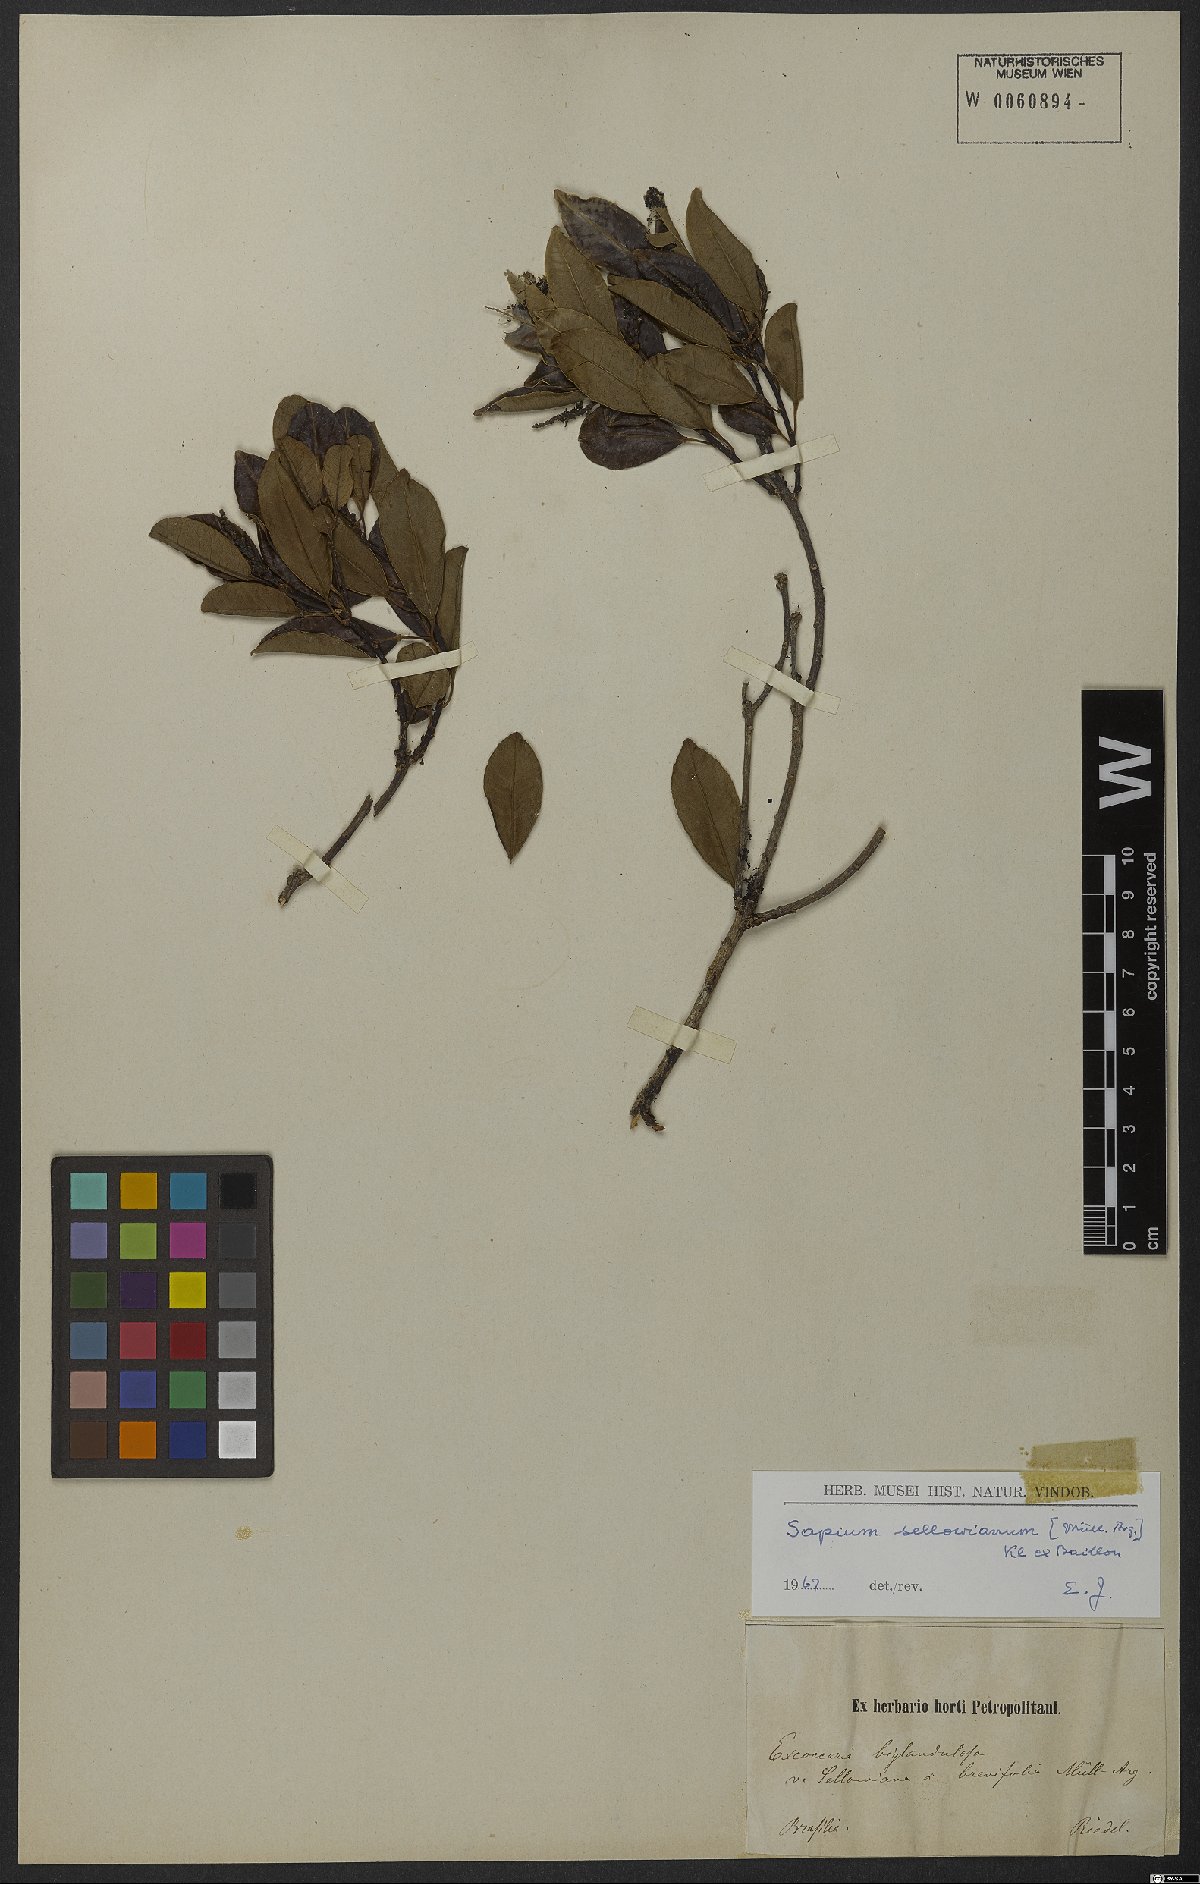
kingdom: Plantae
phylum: Tracheophyta
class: Magnoliopsida
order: Malpighiales
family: Euphorbiaceae
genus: Sapium
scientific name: Sapium sellowianum
